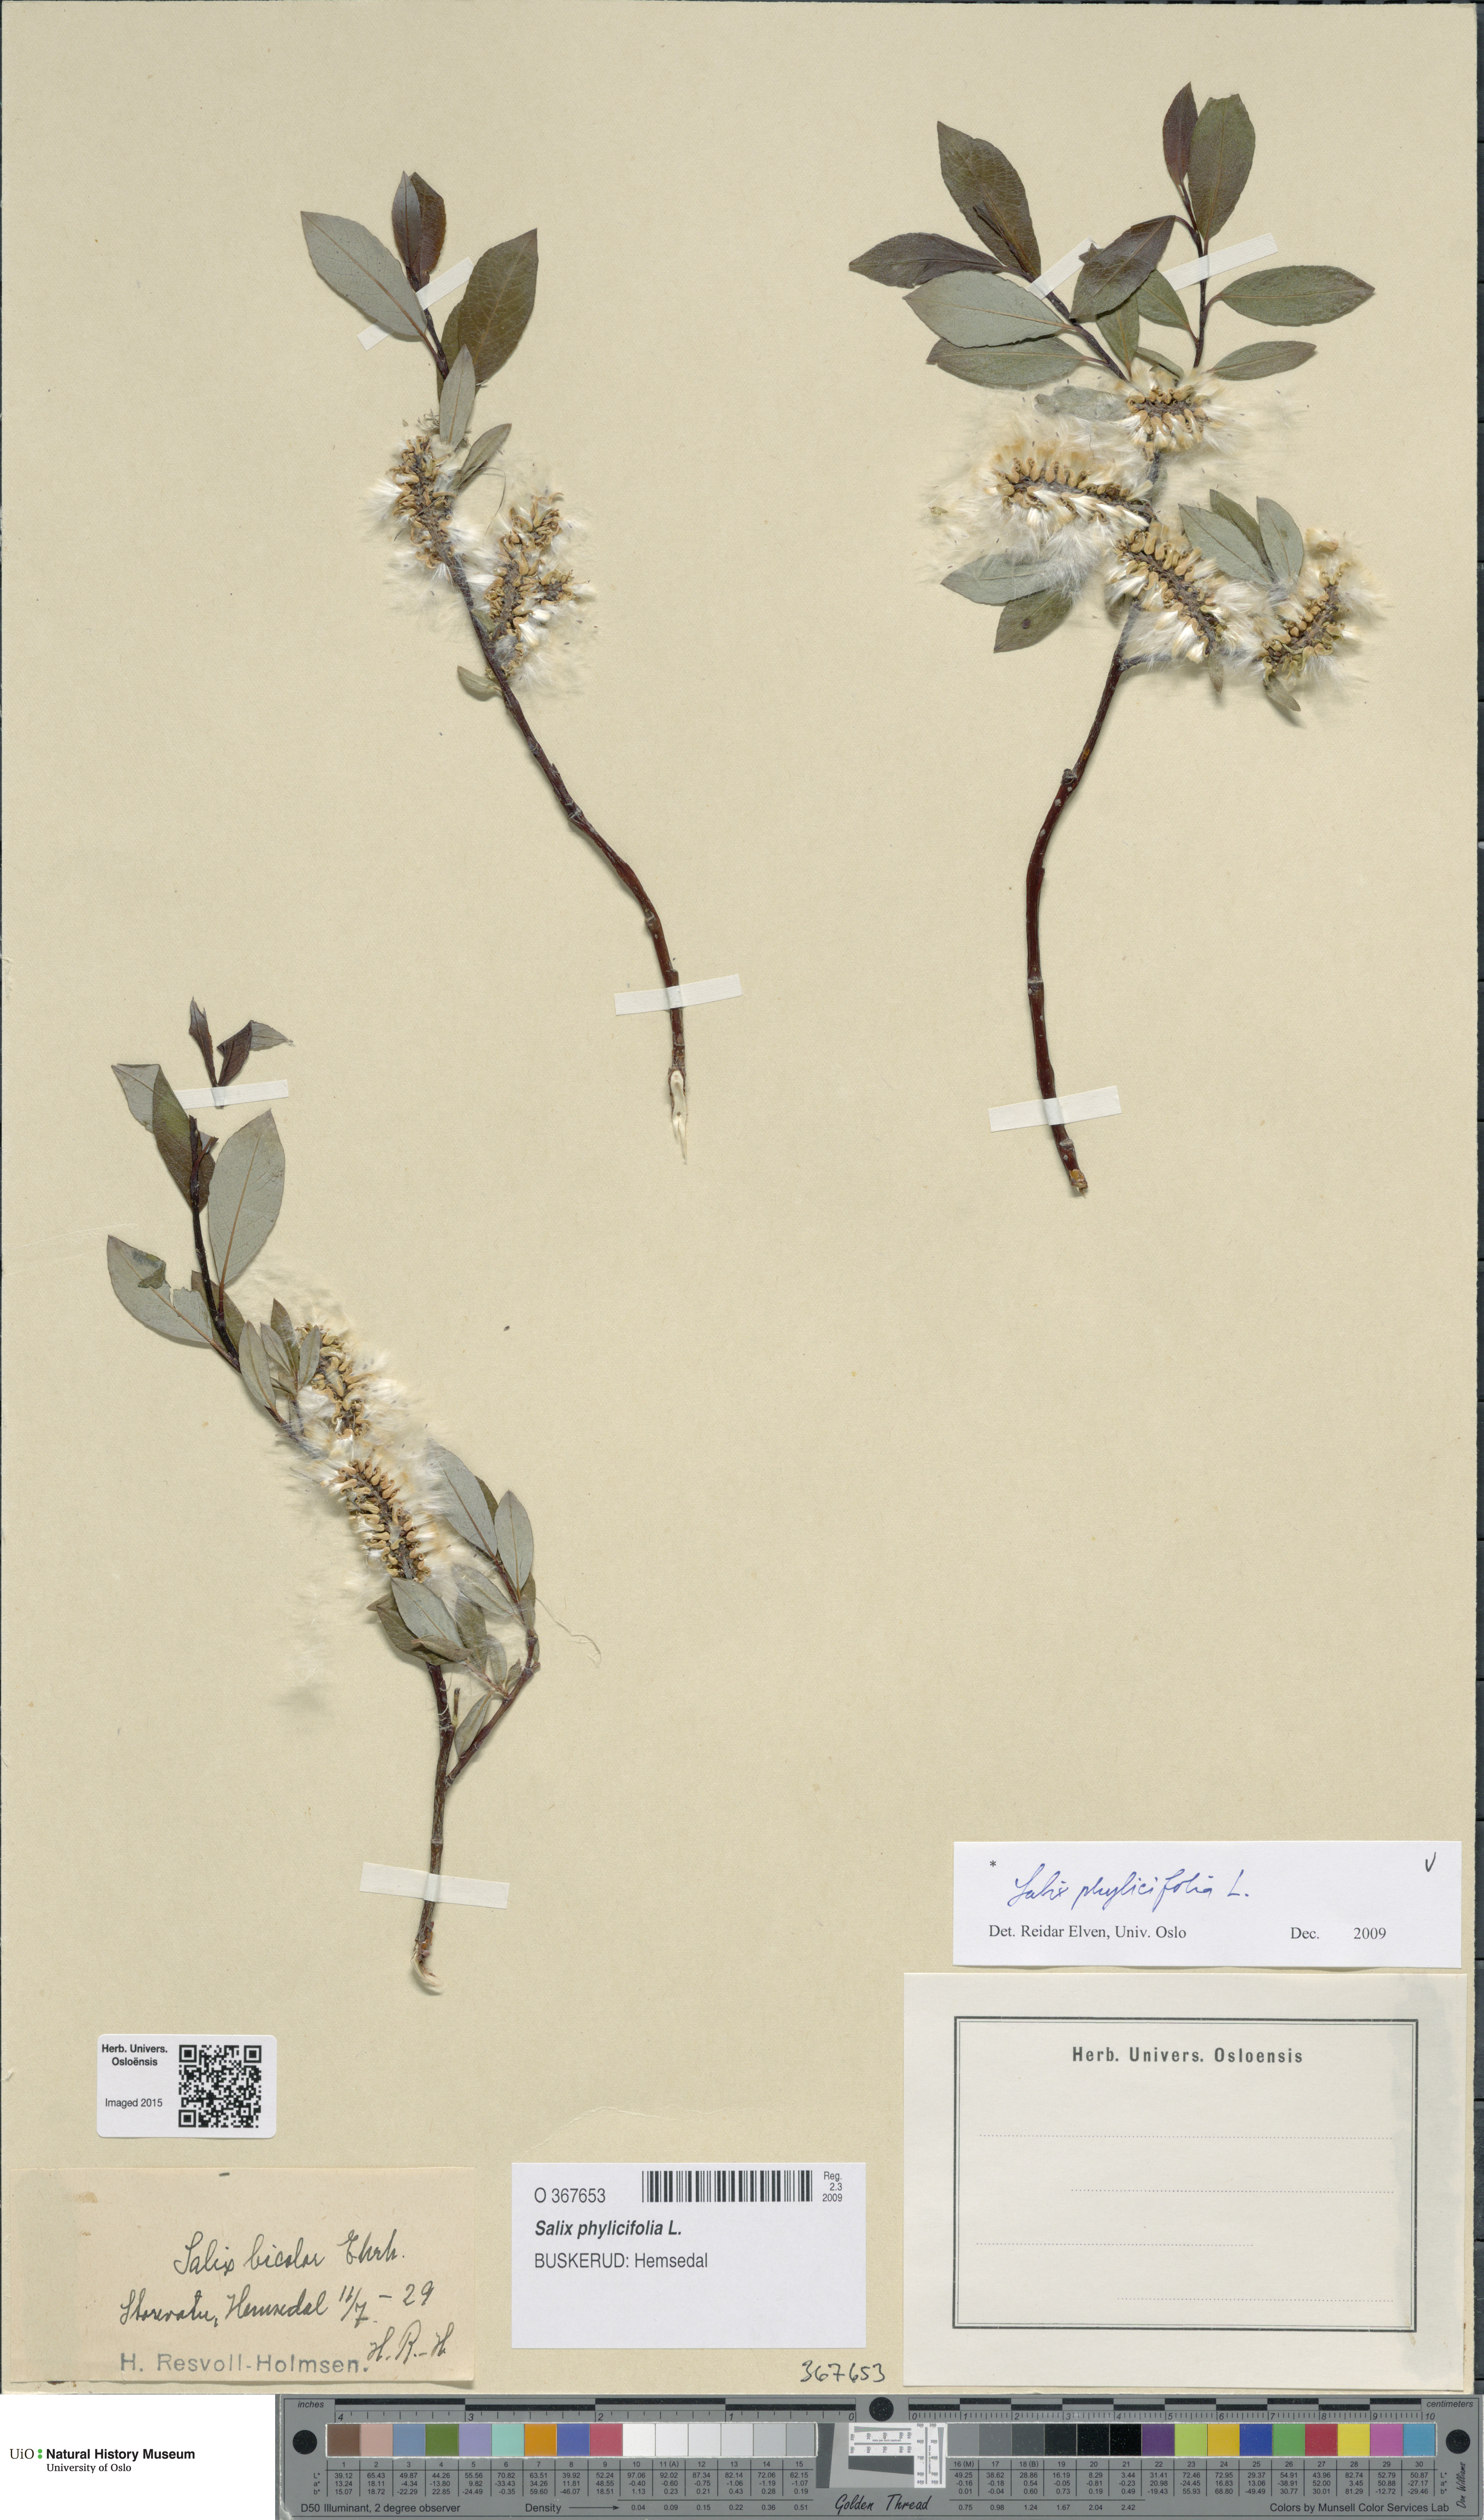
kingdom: Plantae
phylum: Tracheophyta
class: Magnoliopsida
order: Malpighiales
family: Salicaceae
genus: Salix
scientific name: Salix phylicifolia
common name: Tea-leaved willow
